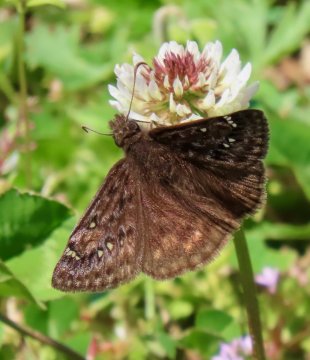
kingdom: Animalia
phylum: Arthropoda
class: Insecta
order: Lepidoptera
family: Hesperiidae
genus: Gesta
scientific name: Gesta
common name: Juvenal's Duskywing
